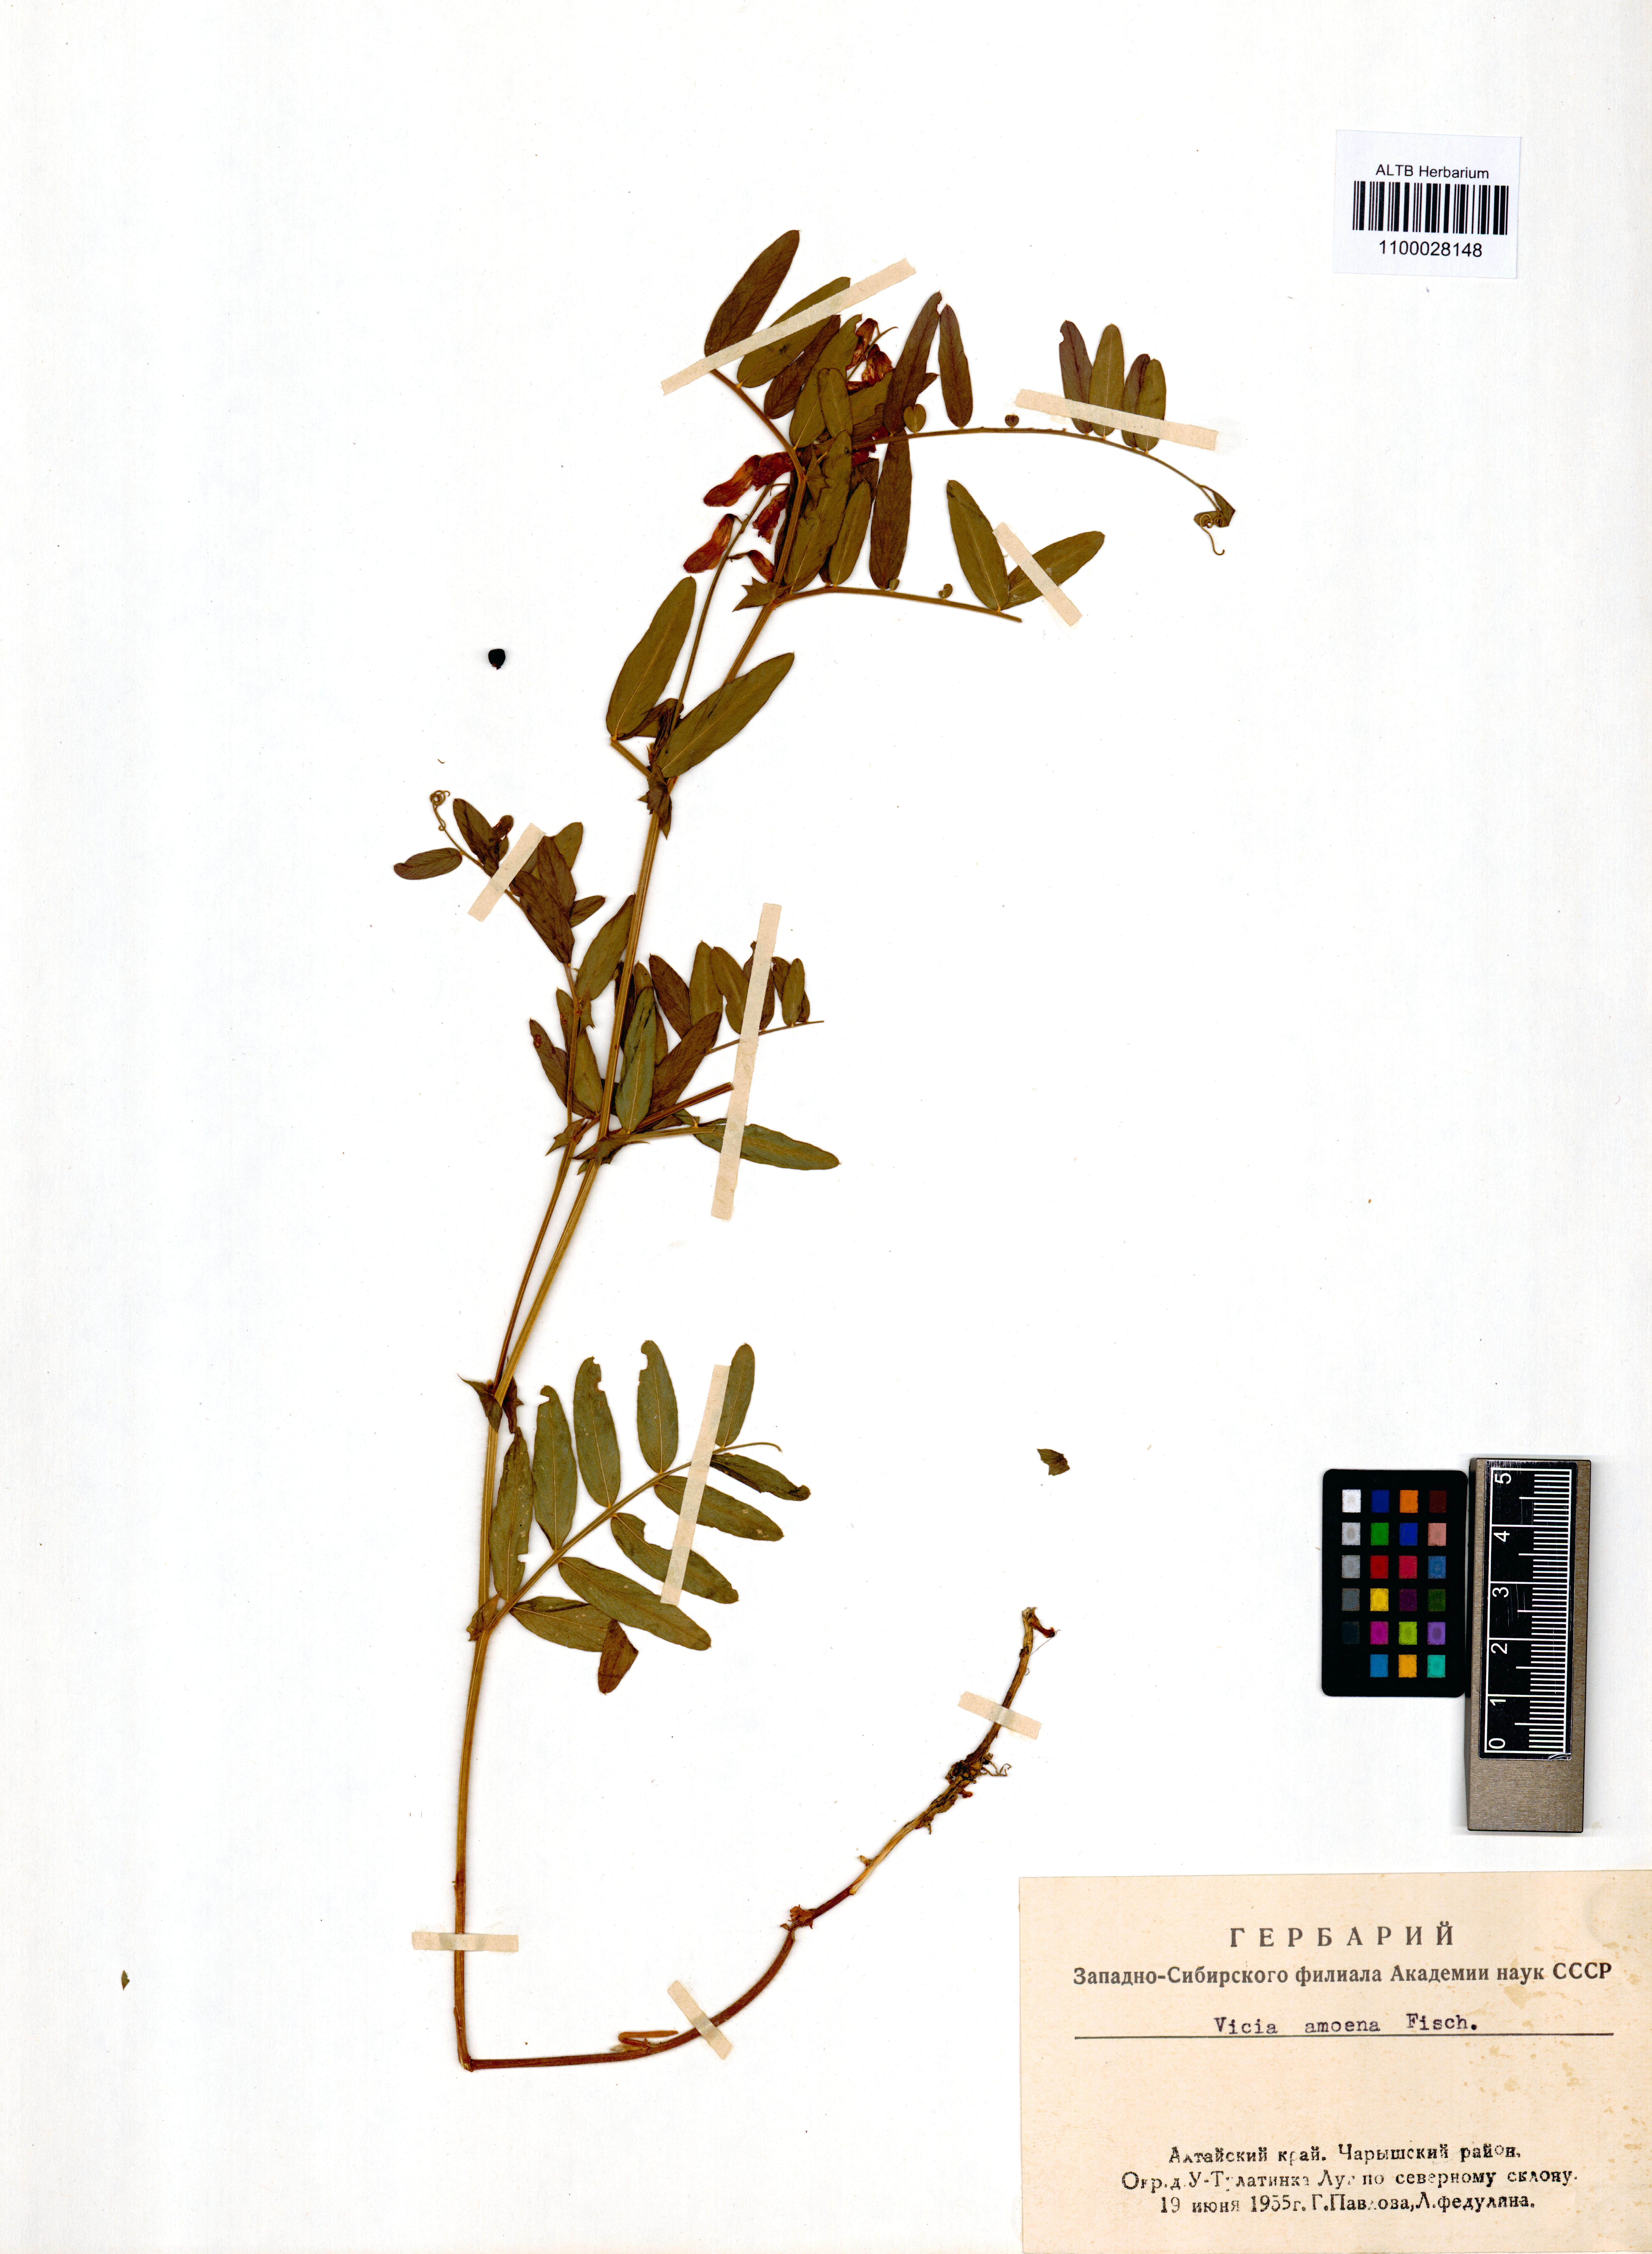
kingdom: Plantae
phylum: Tracheophyta
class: Magnoliopsida
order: Fabales
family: Fabaceae
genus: Vicia
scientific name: Vicia amoena
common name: Cheder ebs
